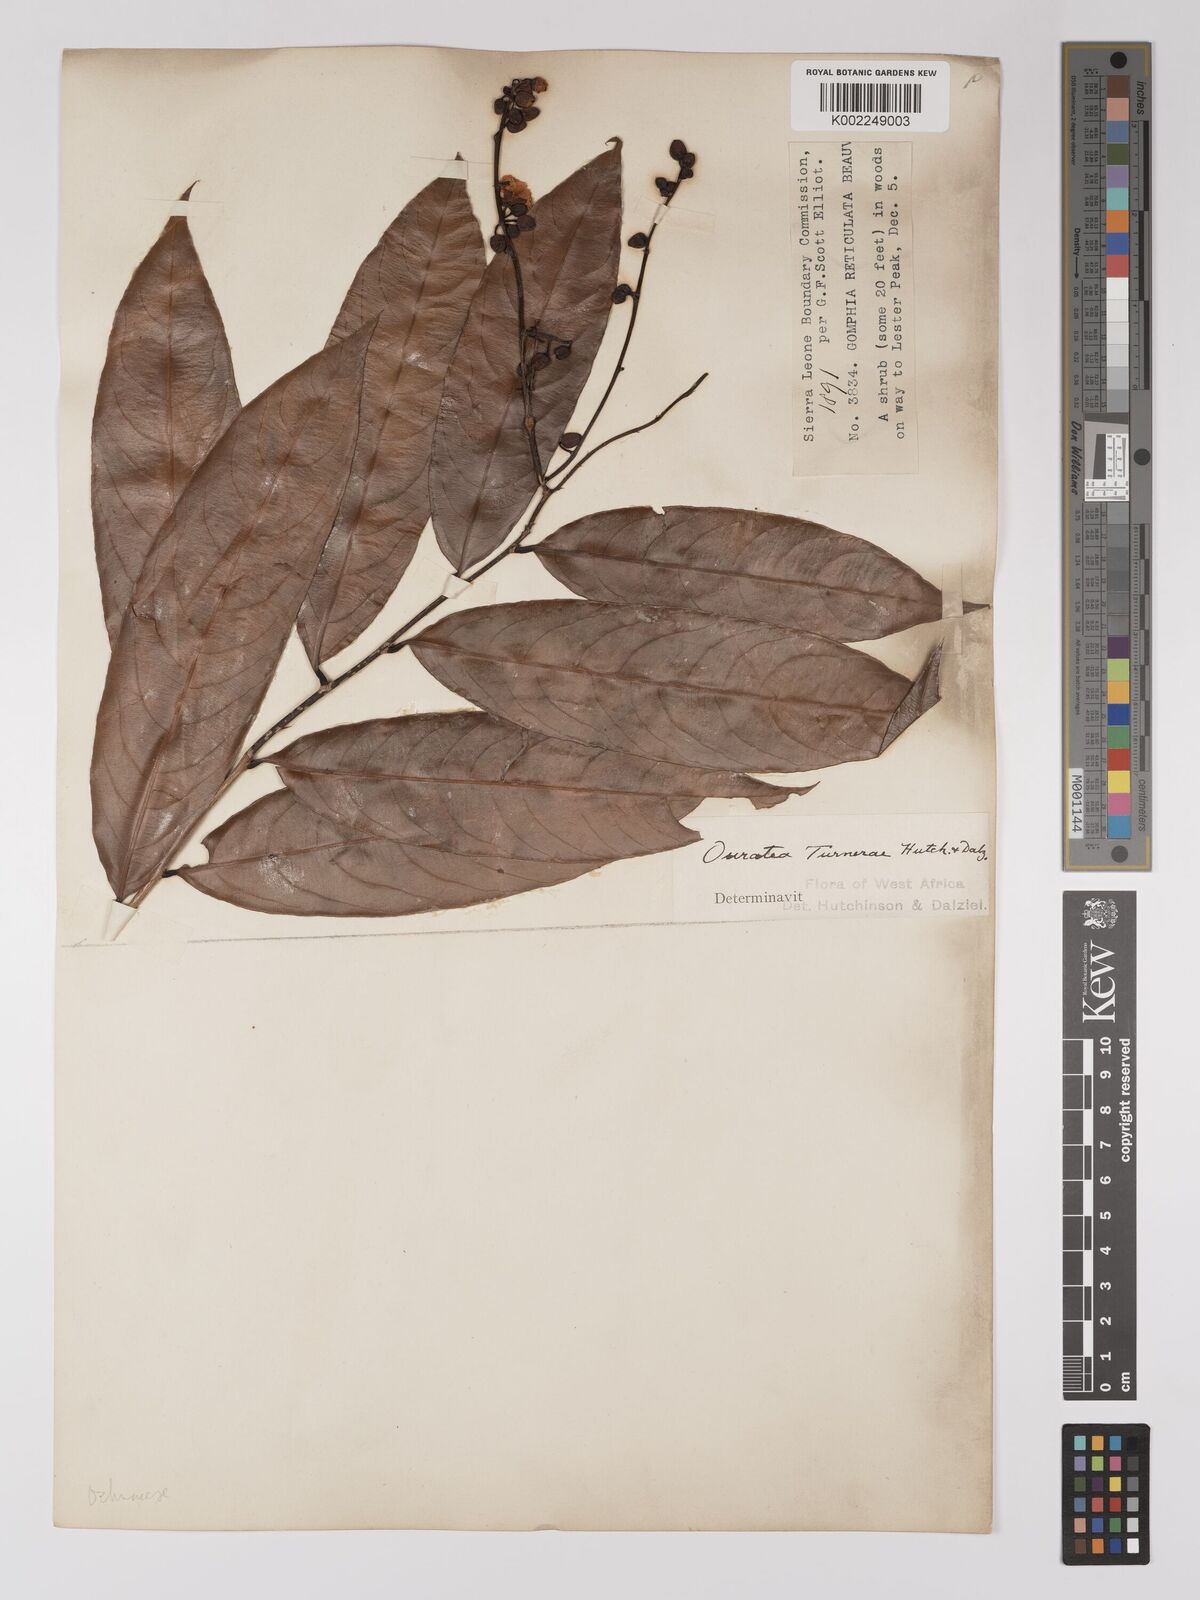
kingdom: Plantae
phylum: Tracheophyta
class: Magnoliopsida
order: Malpighiales
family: Ochnaceae
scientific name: Ochnaceae
